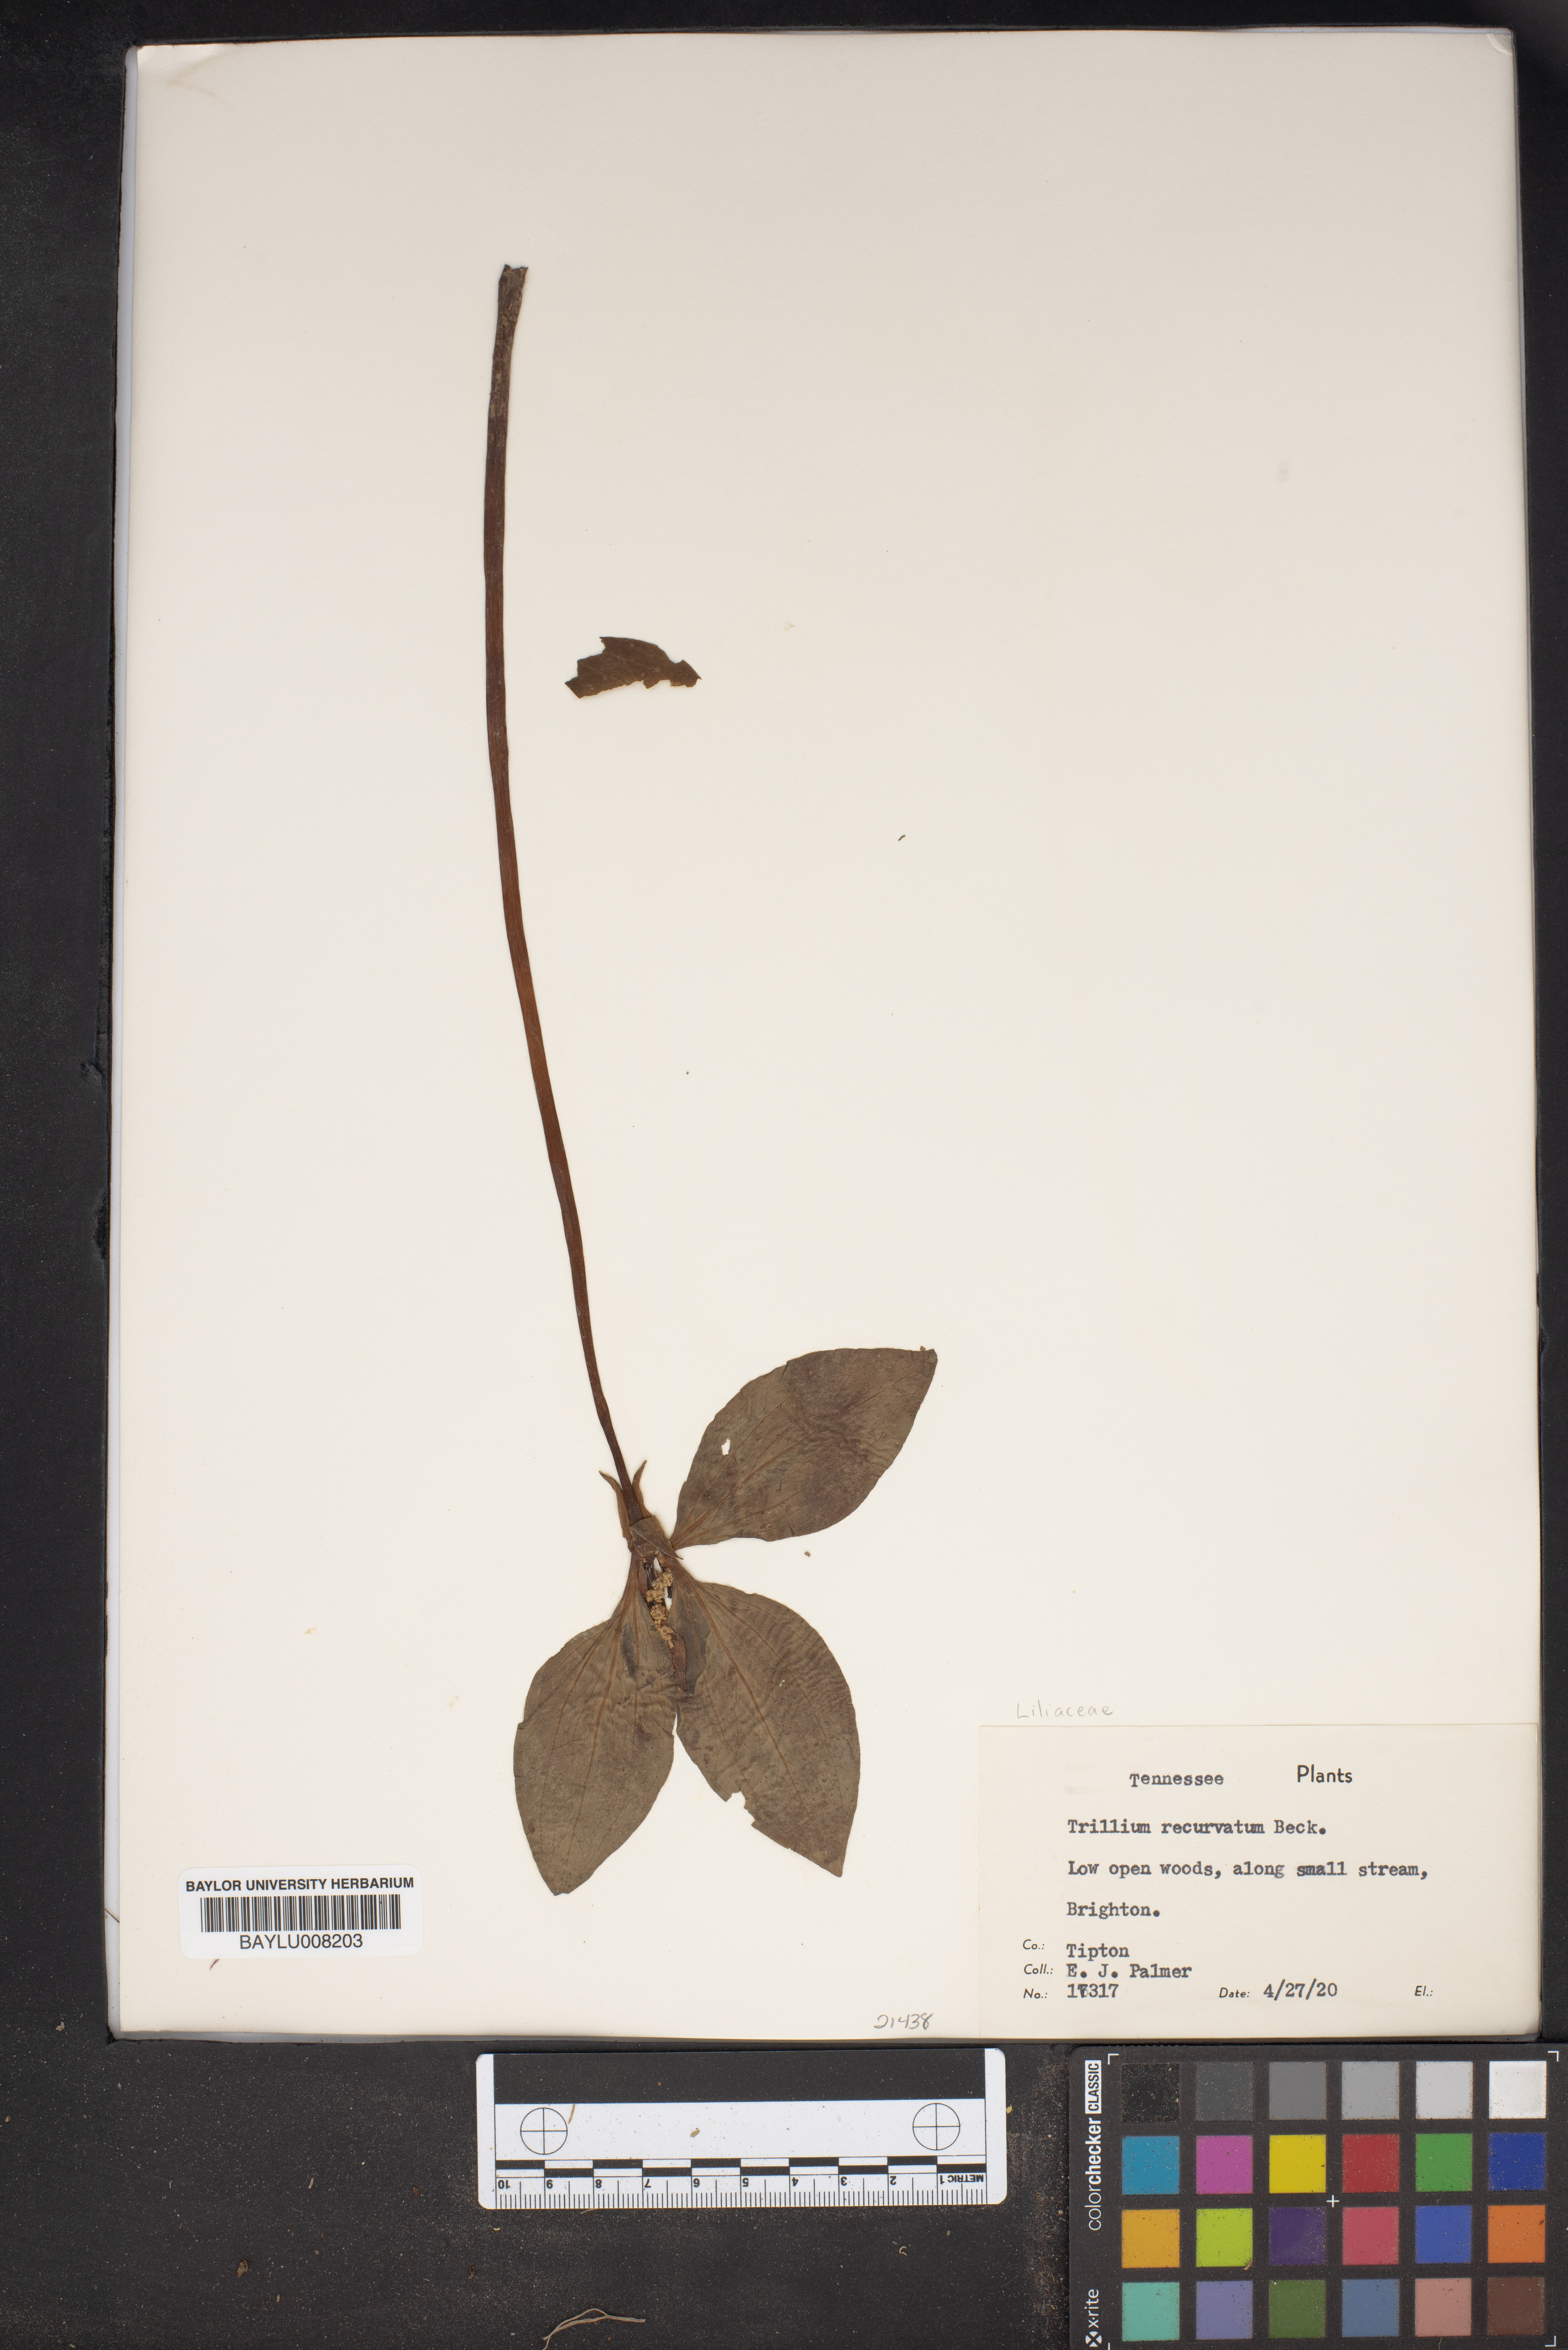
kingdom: Plantae
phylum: Tracheophyta
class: Liliopsida
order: Liliales
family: Melanthiaceae
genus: Trillium
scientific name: Trillium recurvatum
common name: Bloody butcher
